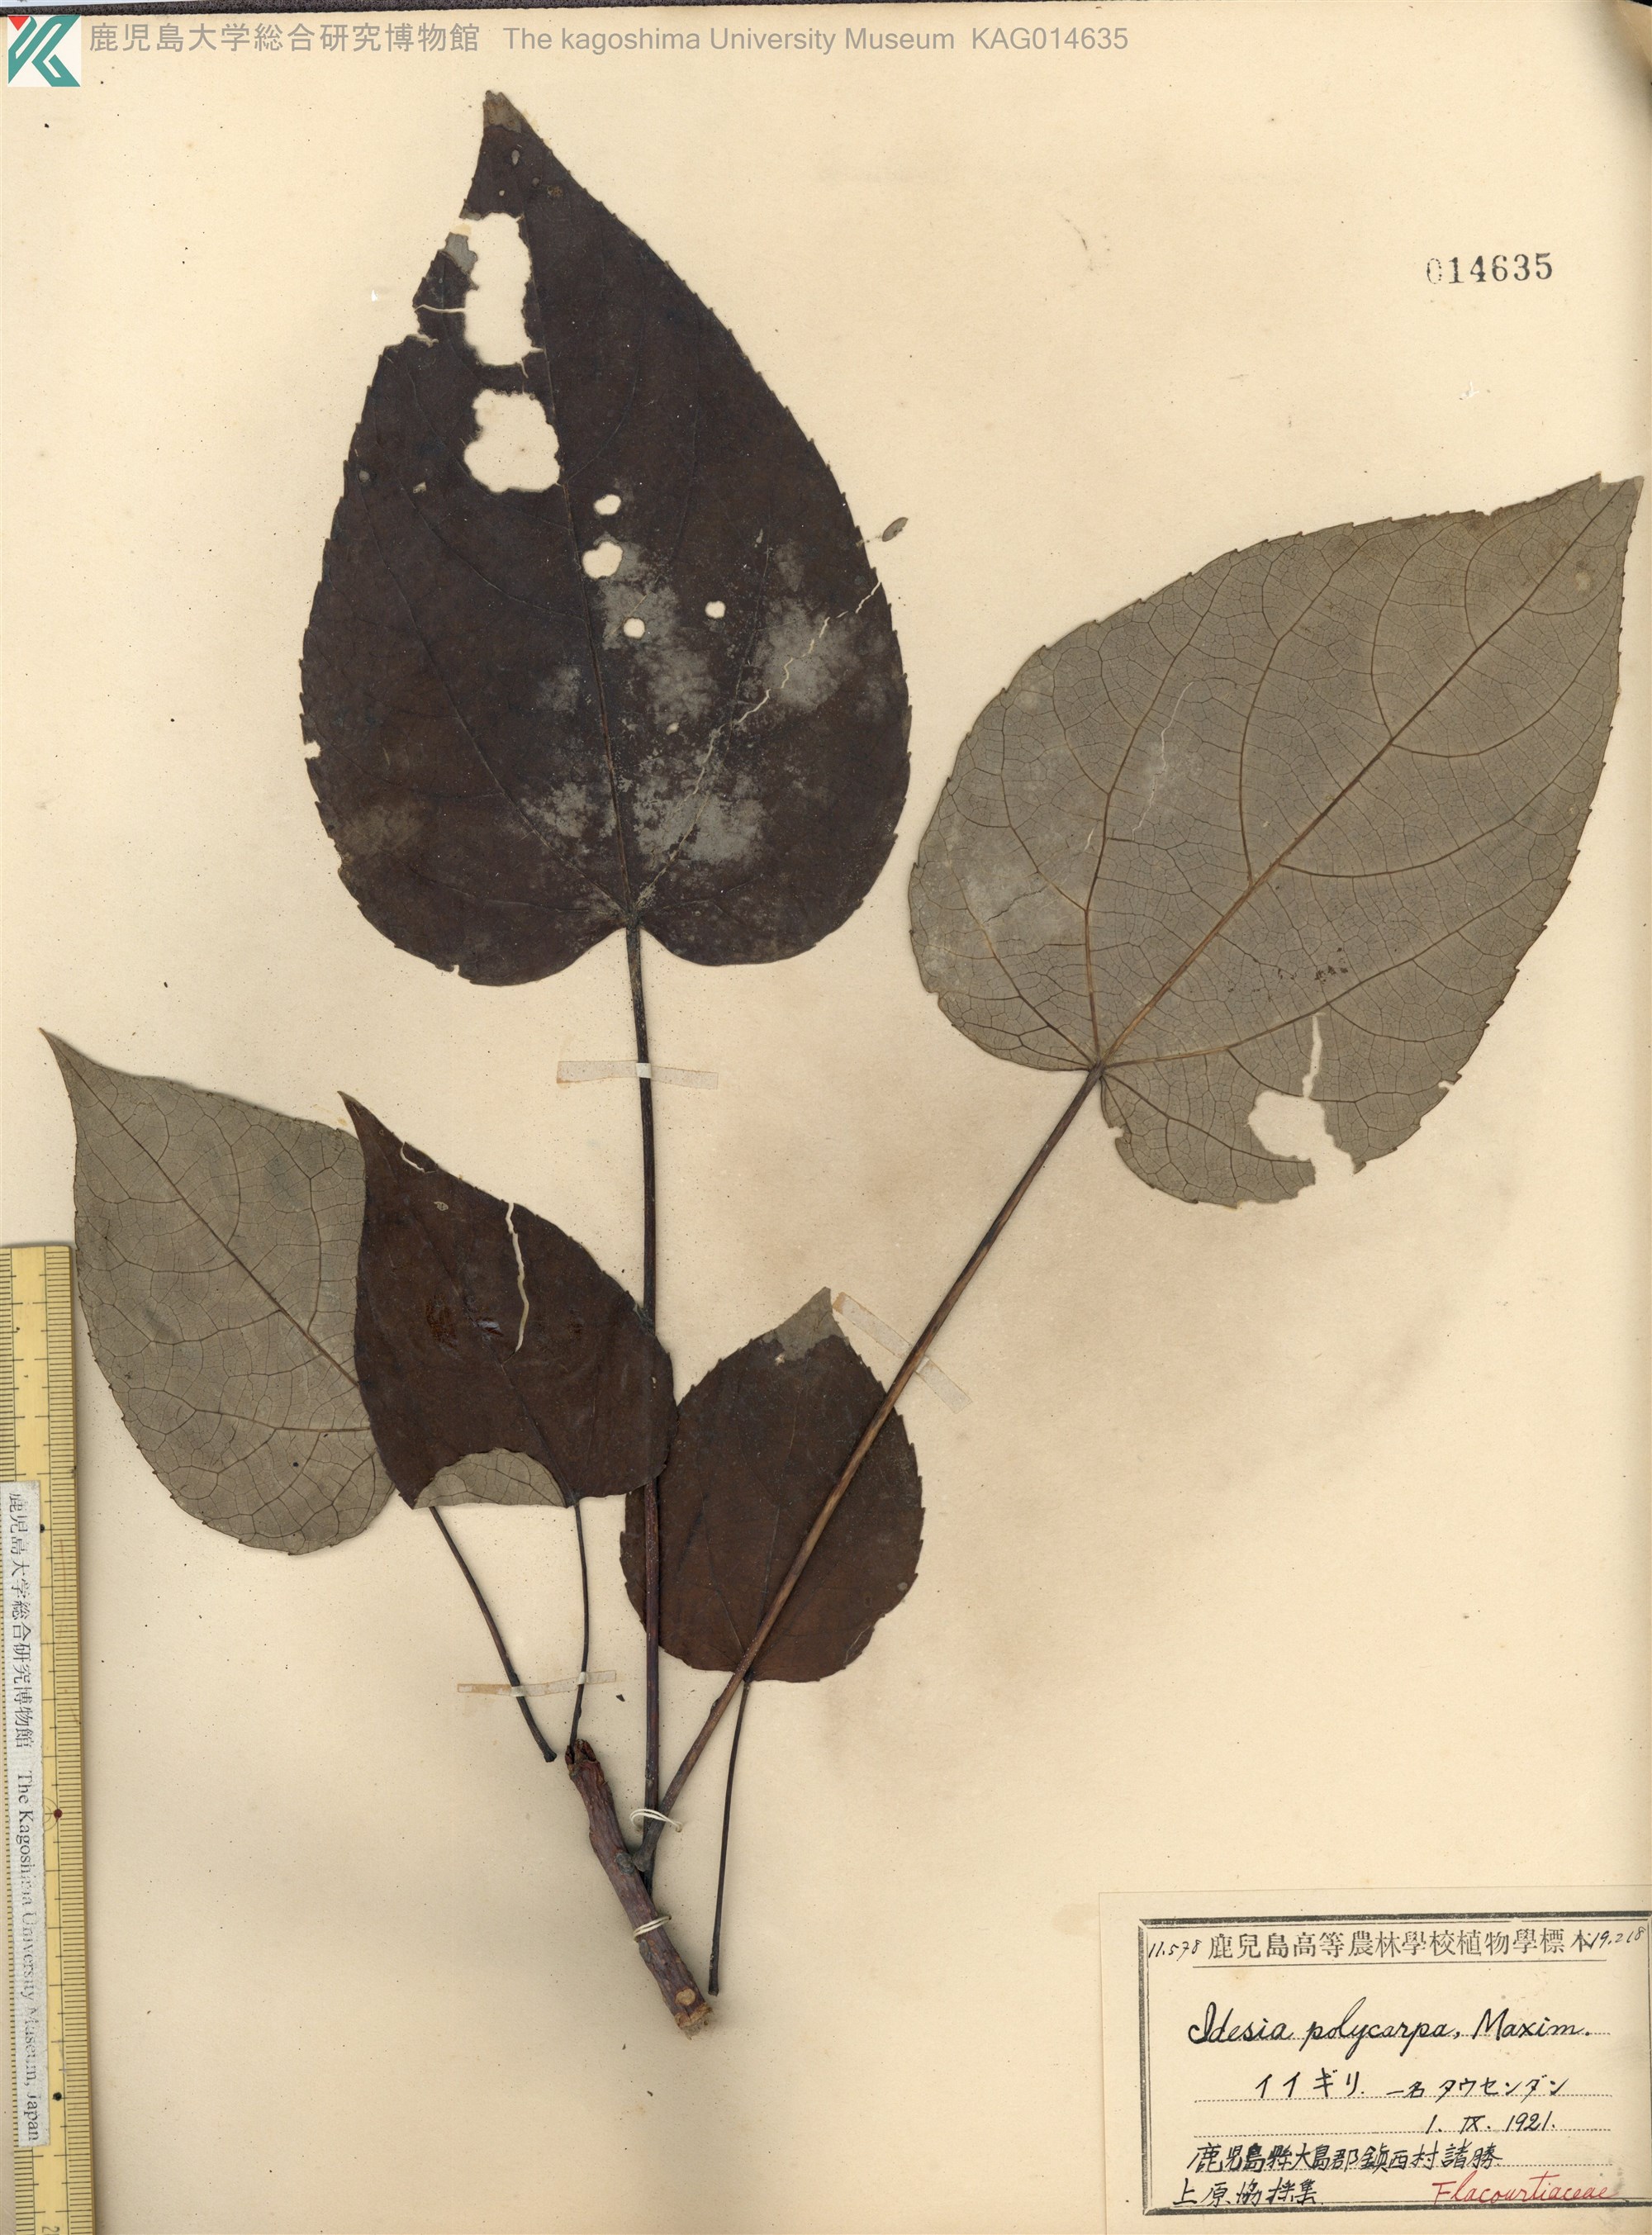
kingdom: Plantae
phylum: Tracheophyta
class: Magnoliopsida
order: Malpighiales
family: Salicaceae
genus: Idesia
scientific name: Idesia polycarpa
